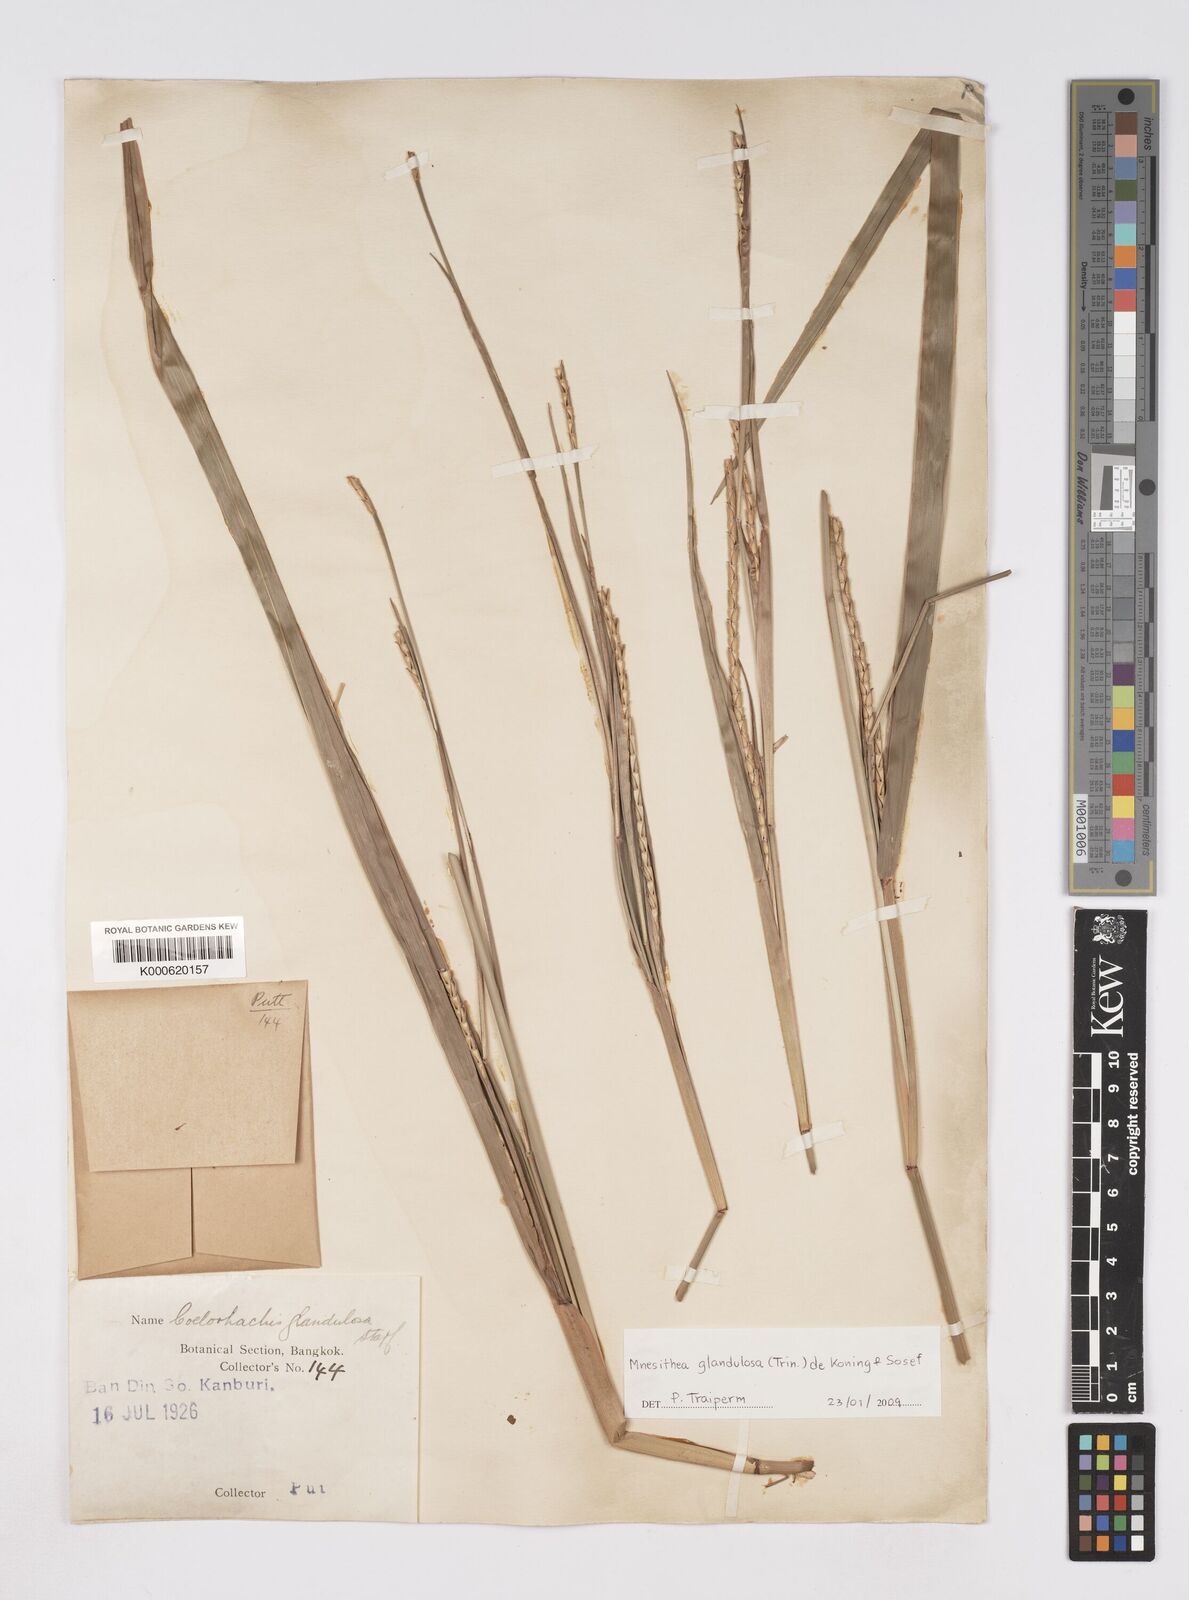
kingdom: Plantae
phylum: Tracheophyta
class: Liliopsida
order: Poales
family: Poaceae
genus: Rottboellia
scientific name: Rottboellia glandulosa
